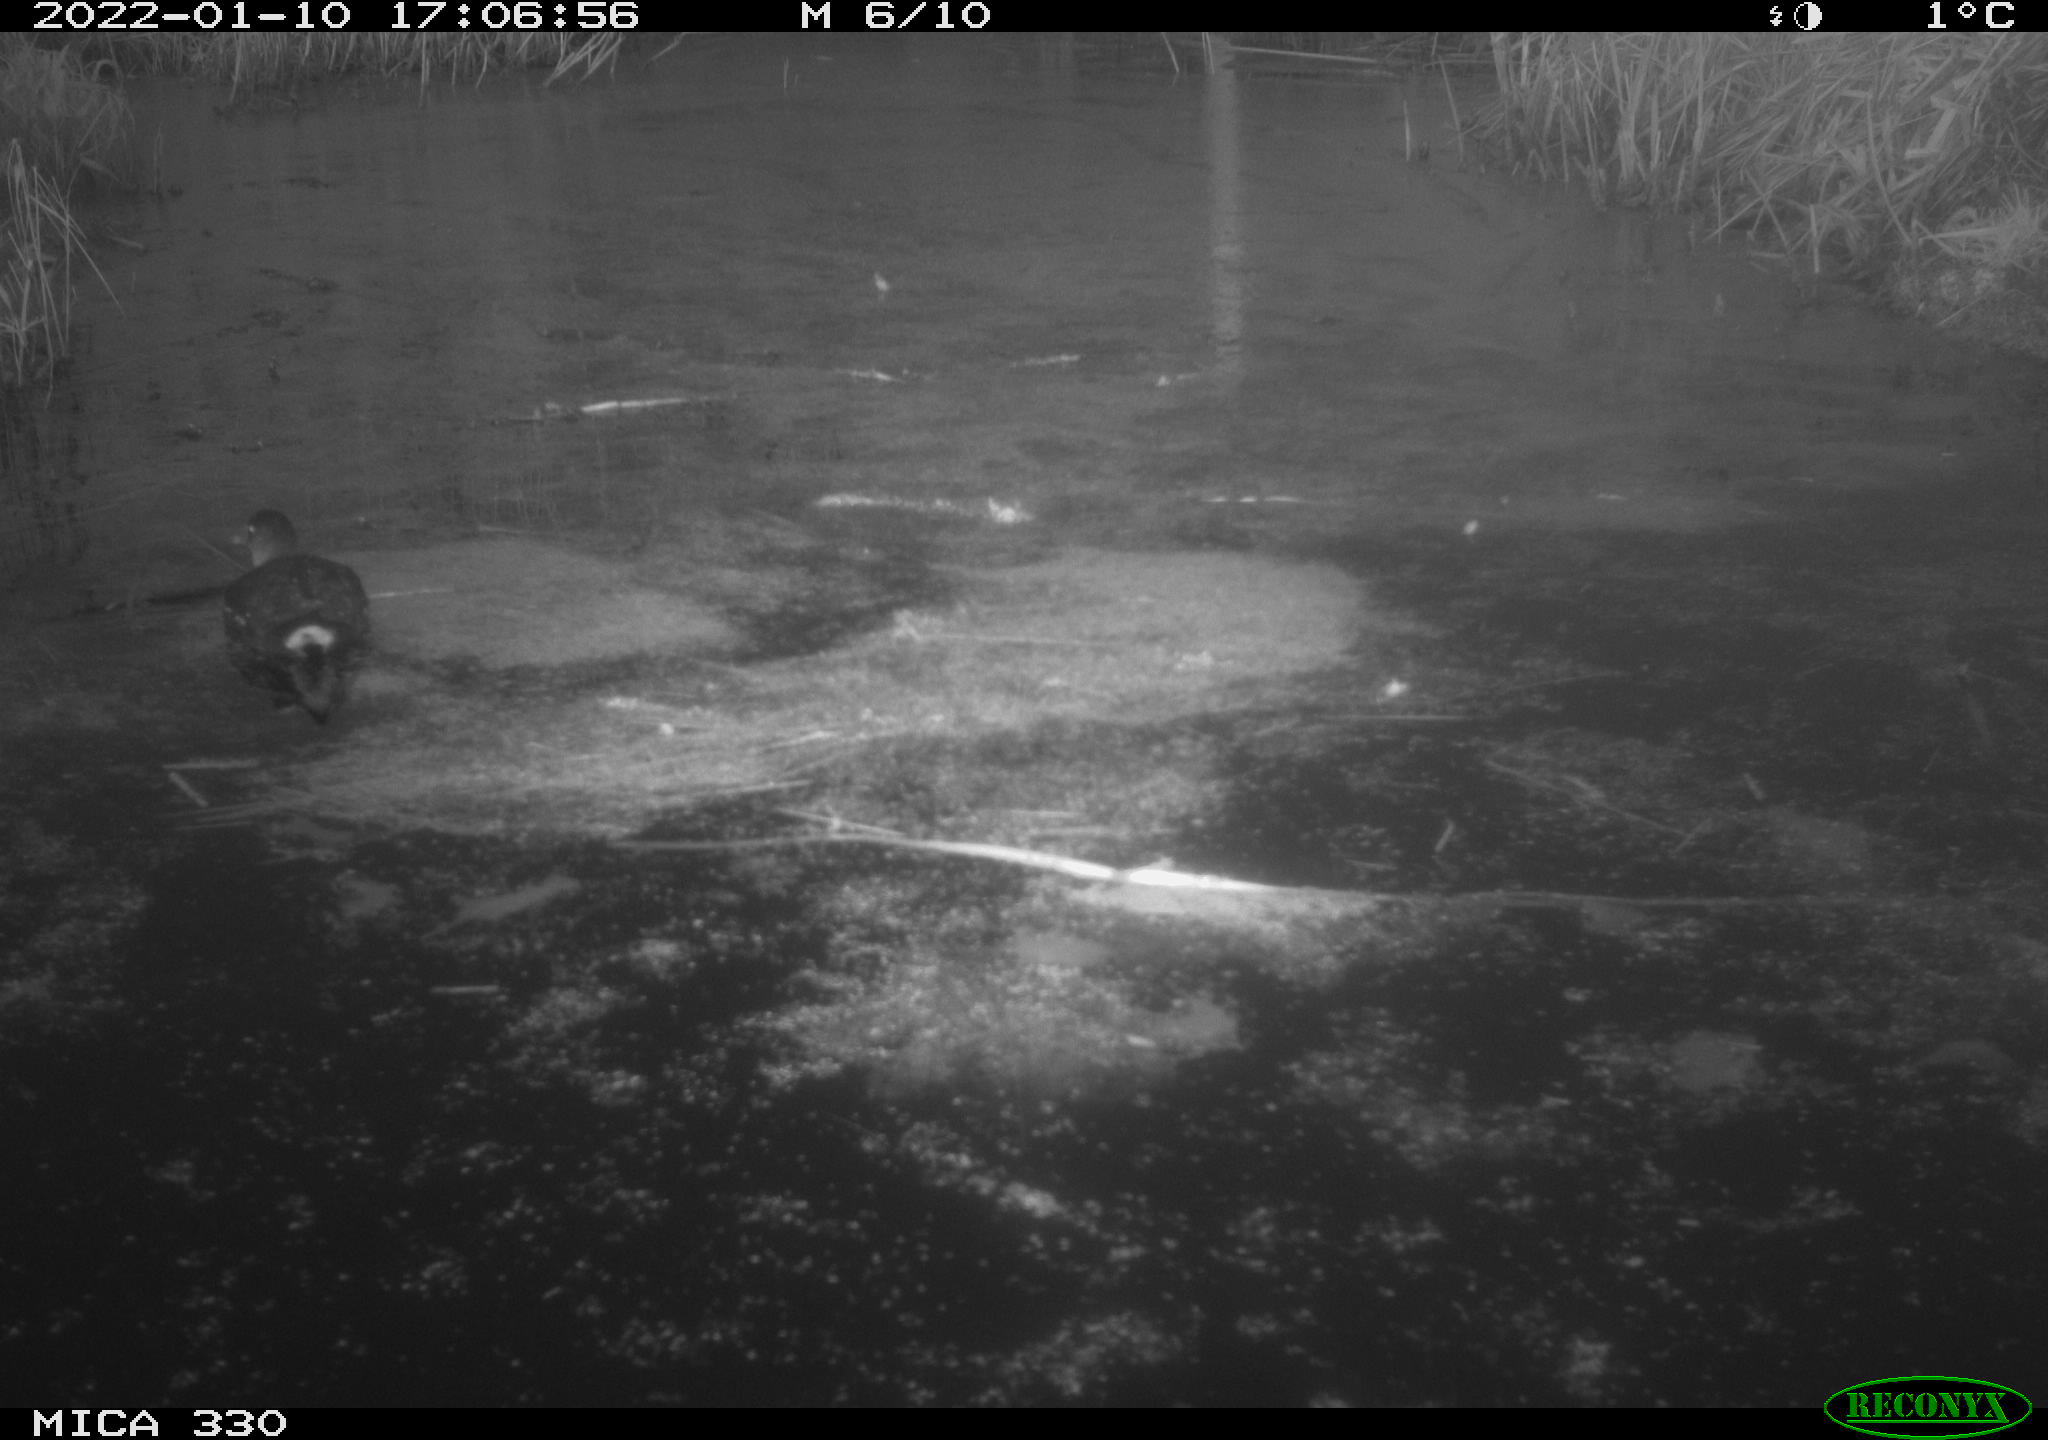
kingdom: Animalia
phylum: Chordata
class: Aves
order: Gruiformes
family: Rallidae
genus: Gallinula
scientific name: Gallinula chloropus
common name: Common moorhen
